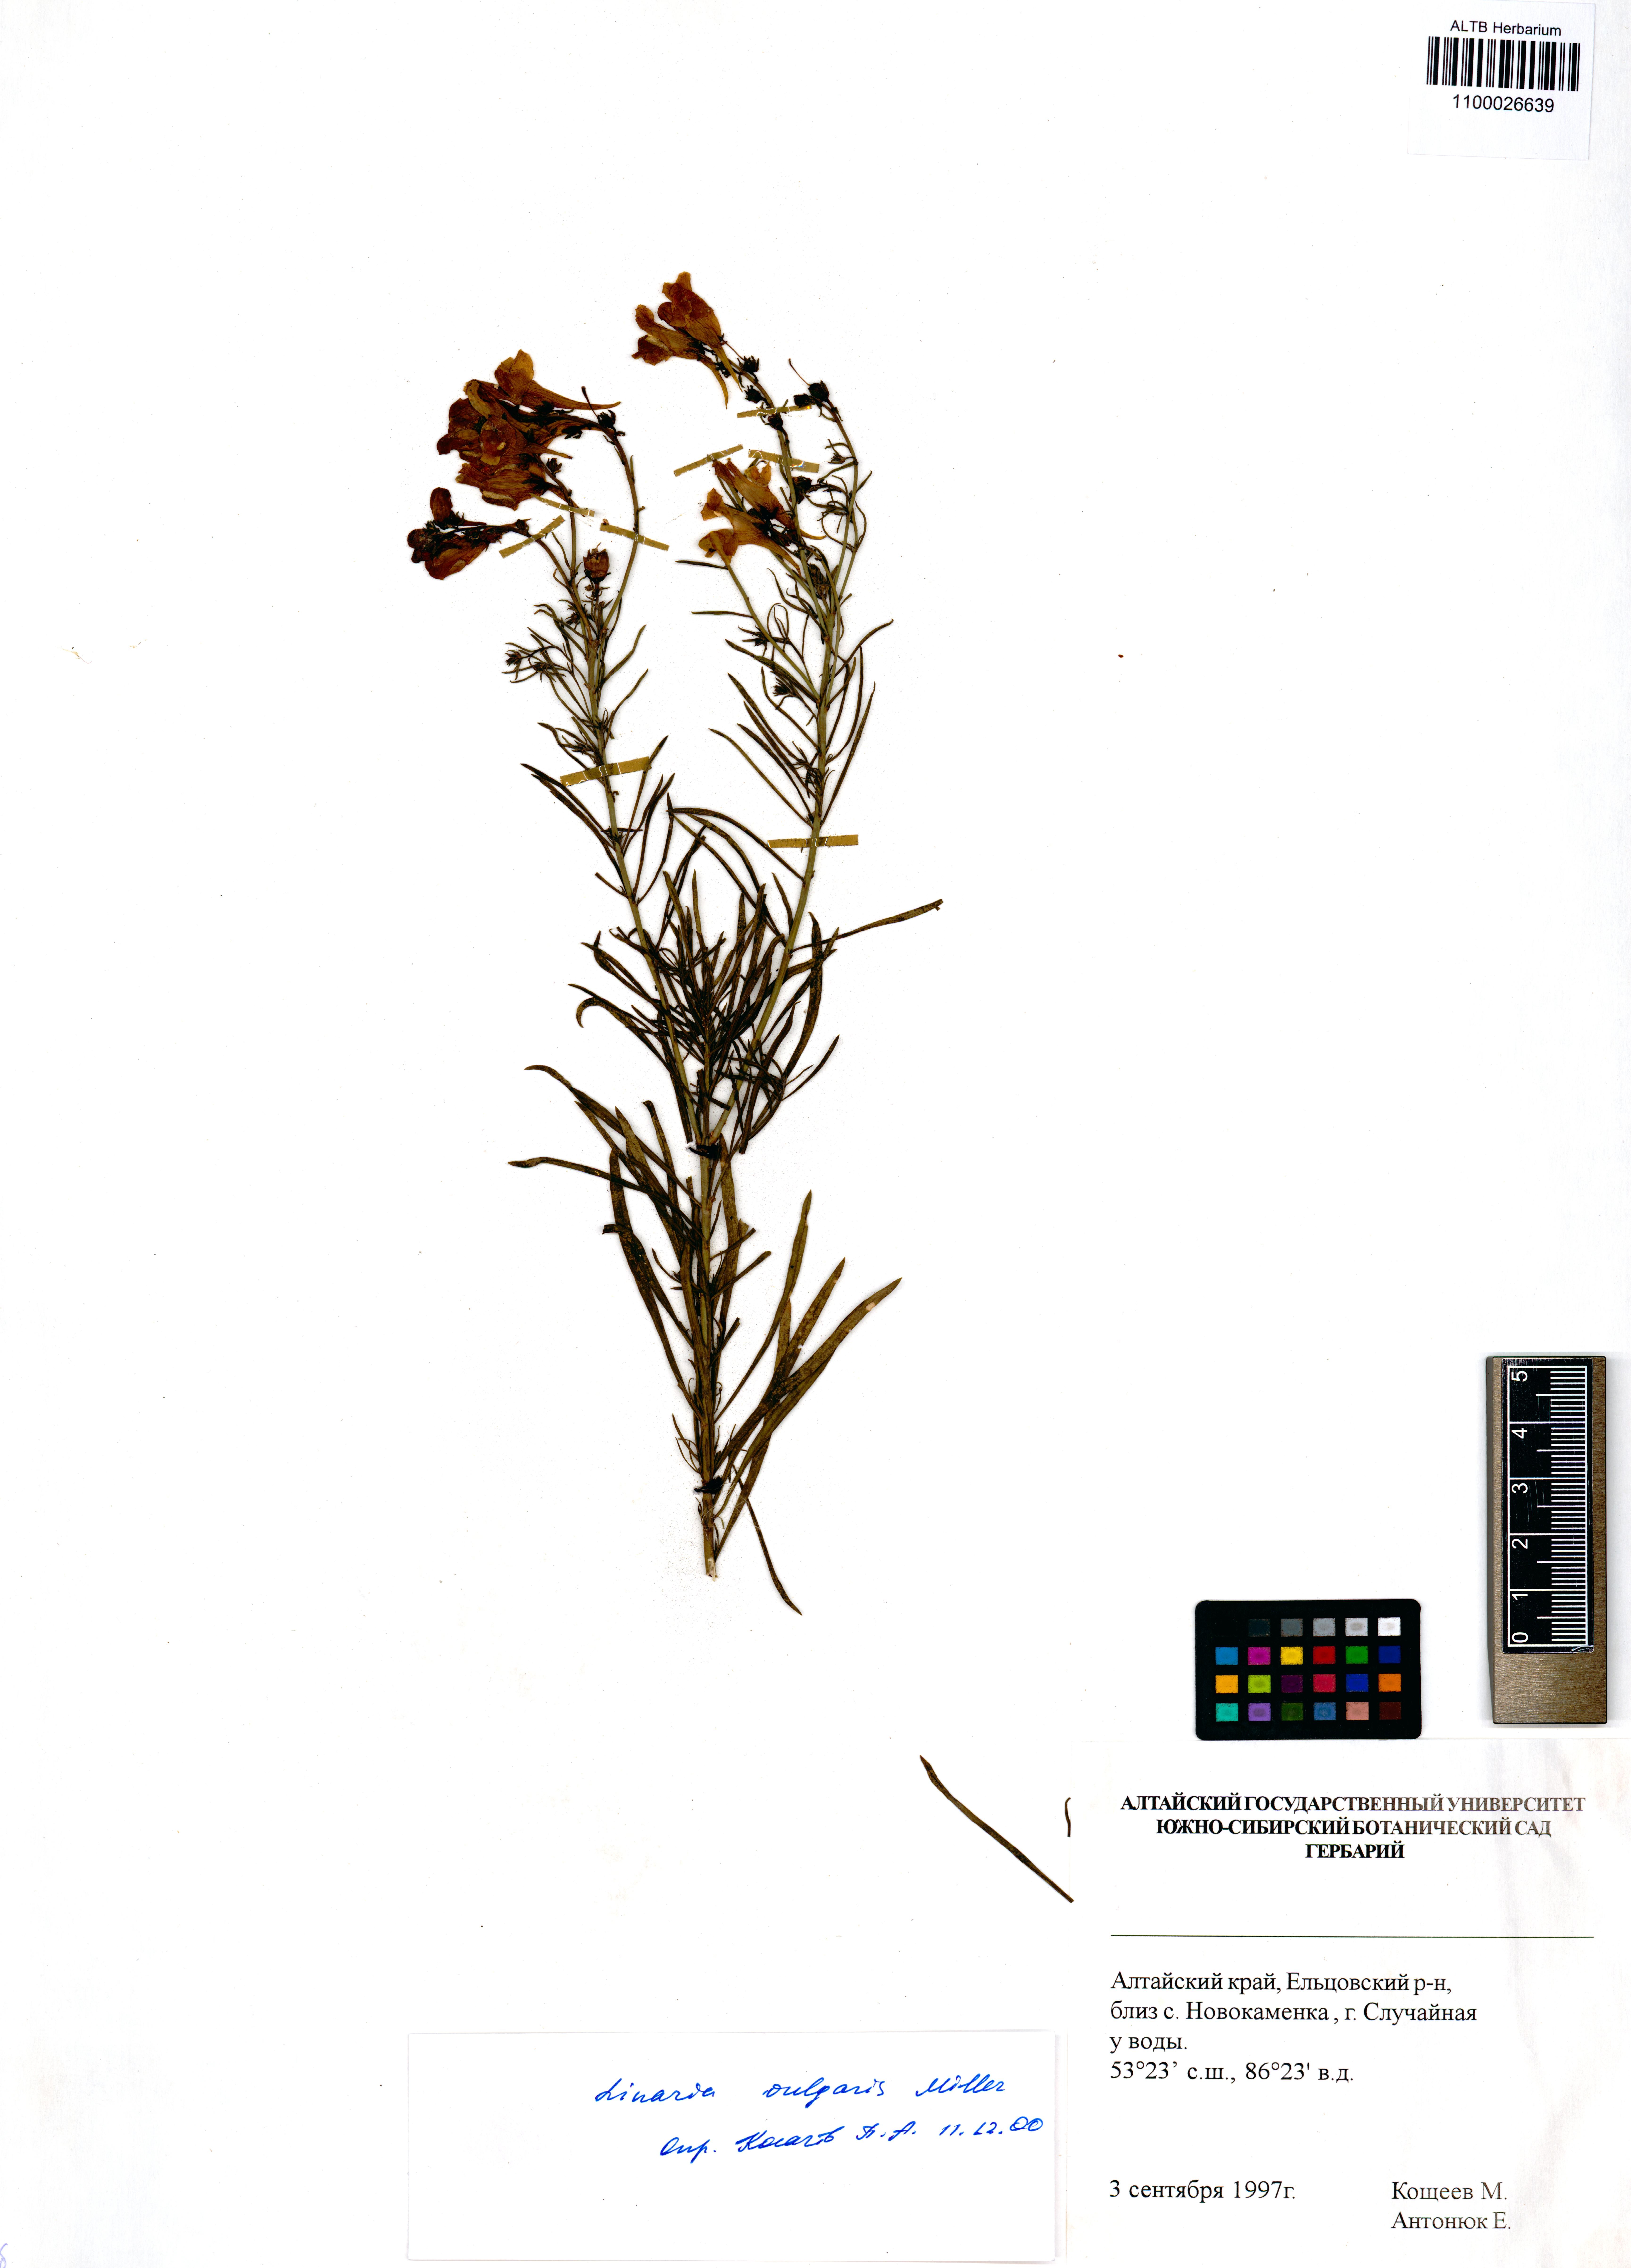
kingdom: Plantae
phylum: Tracheophyta
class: Magnoliopsida
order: Lamiales
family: Plantaginaceae
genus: Linaria
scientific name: Linaria vulgaris
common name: Butter and eggs
